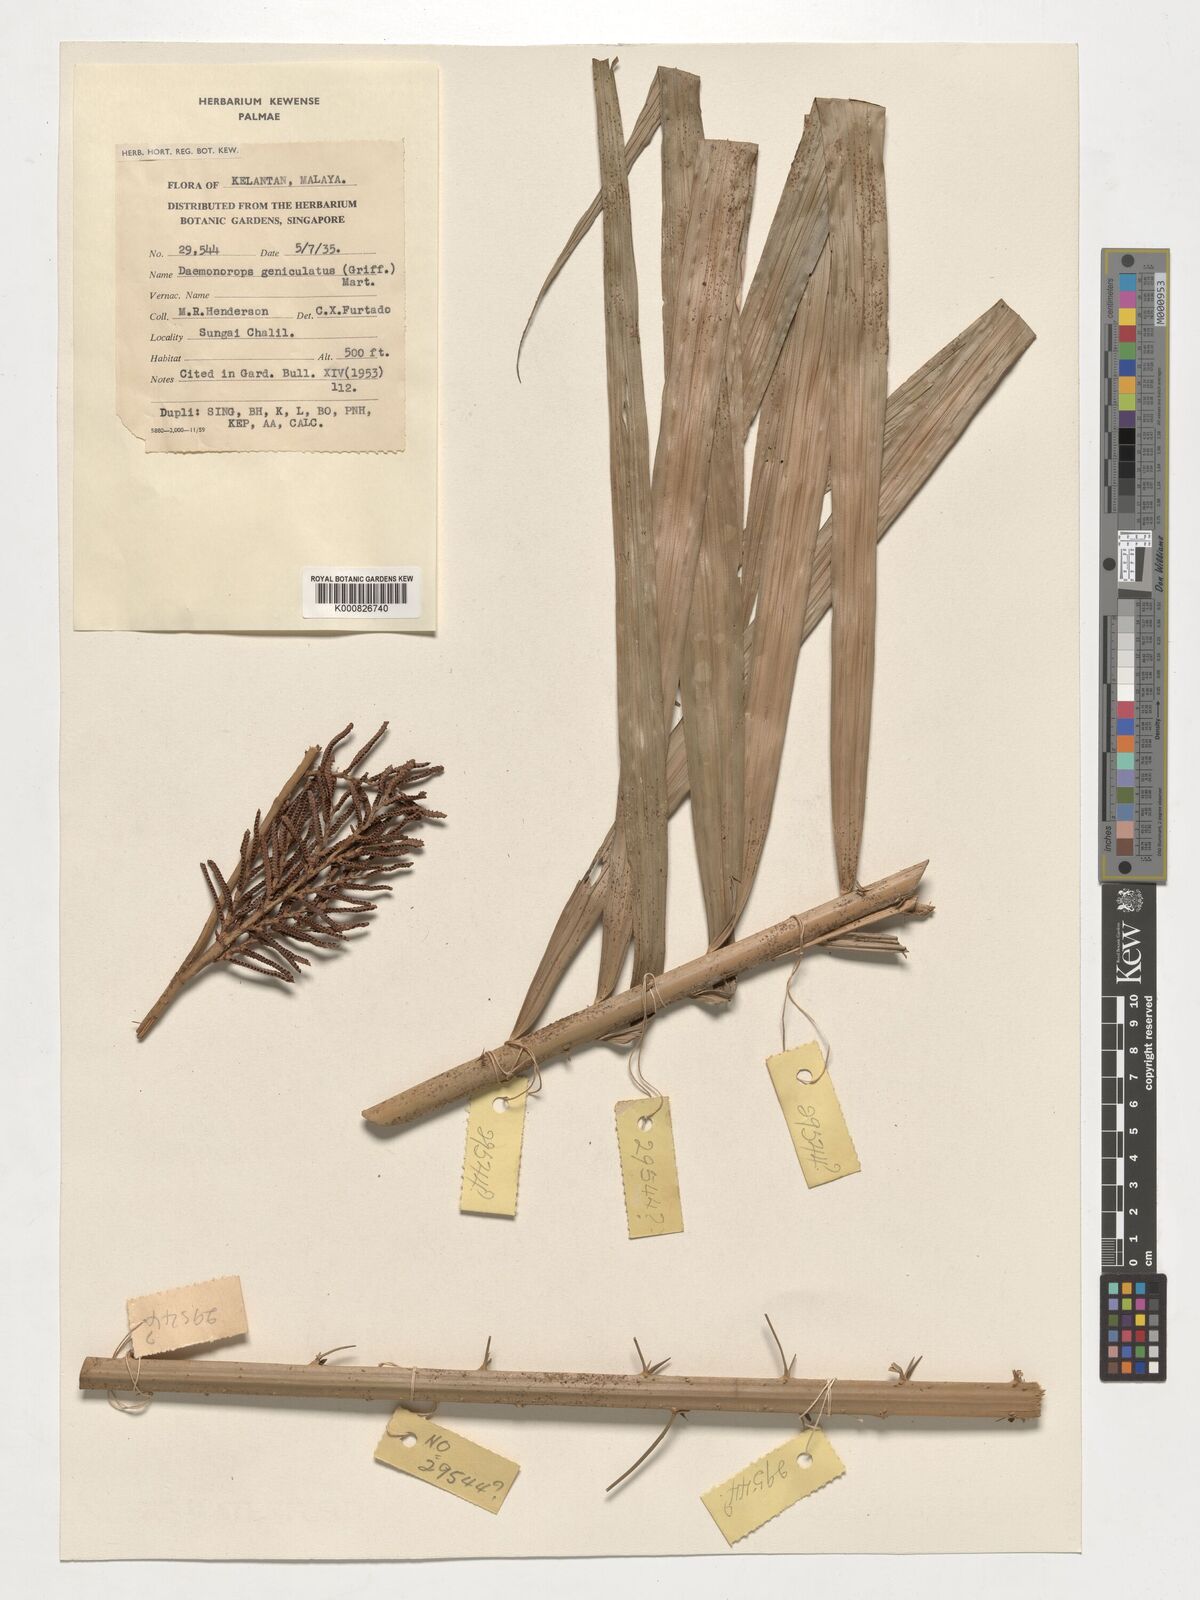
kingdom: Plantae
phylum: Tracheophyta
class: Liliopsida
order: Arecales
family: Arecaceae
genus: Calamus
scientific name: Calamus geniculatus
